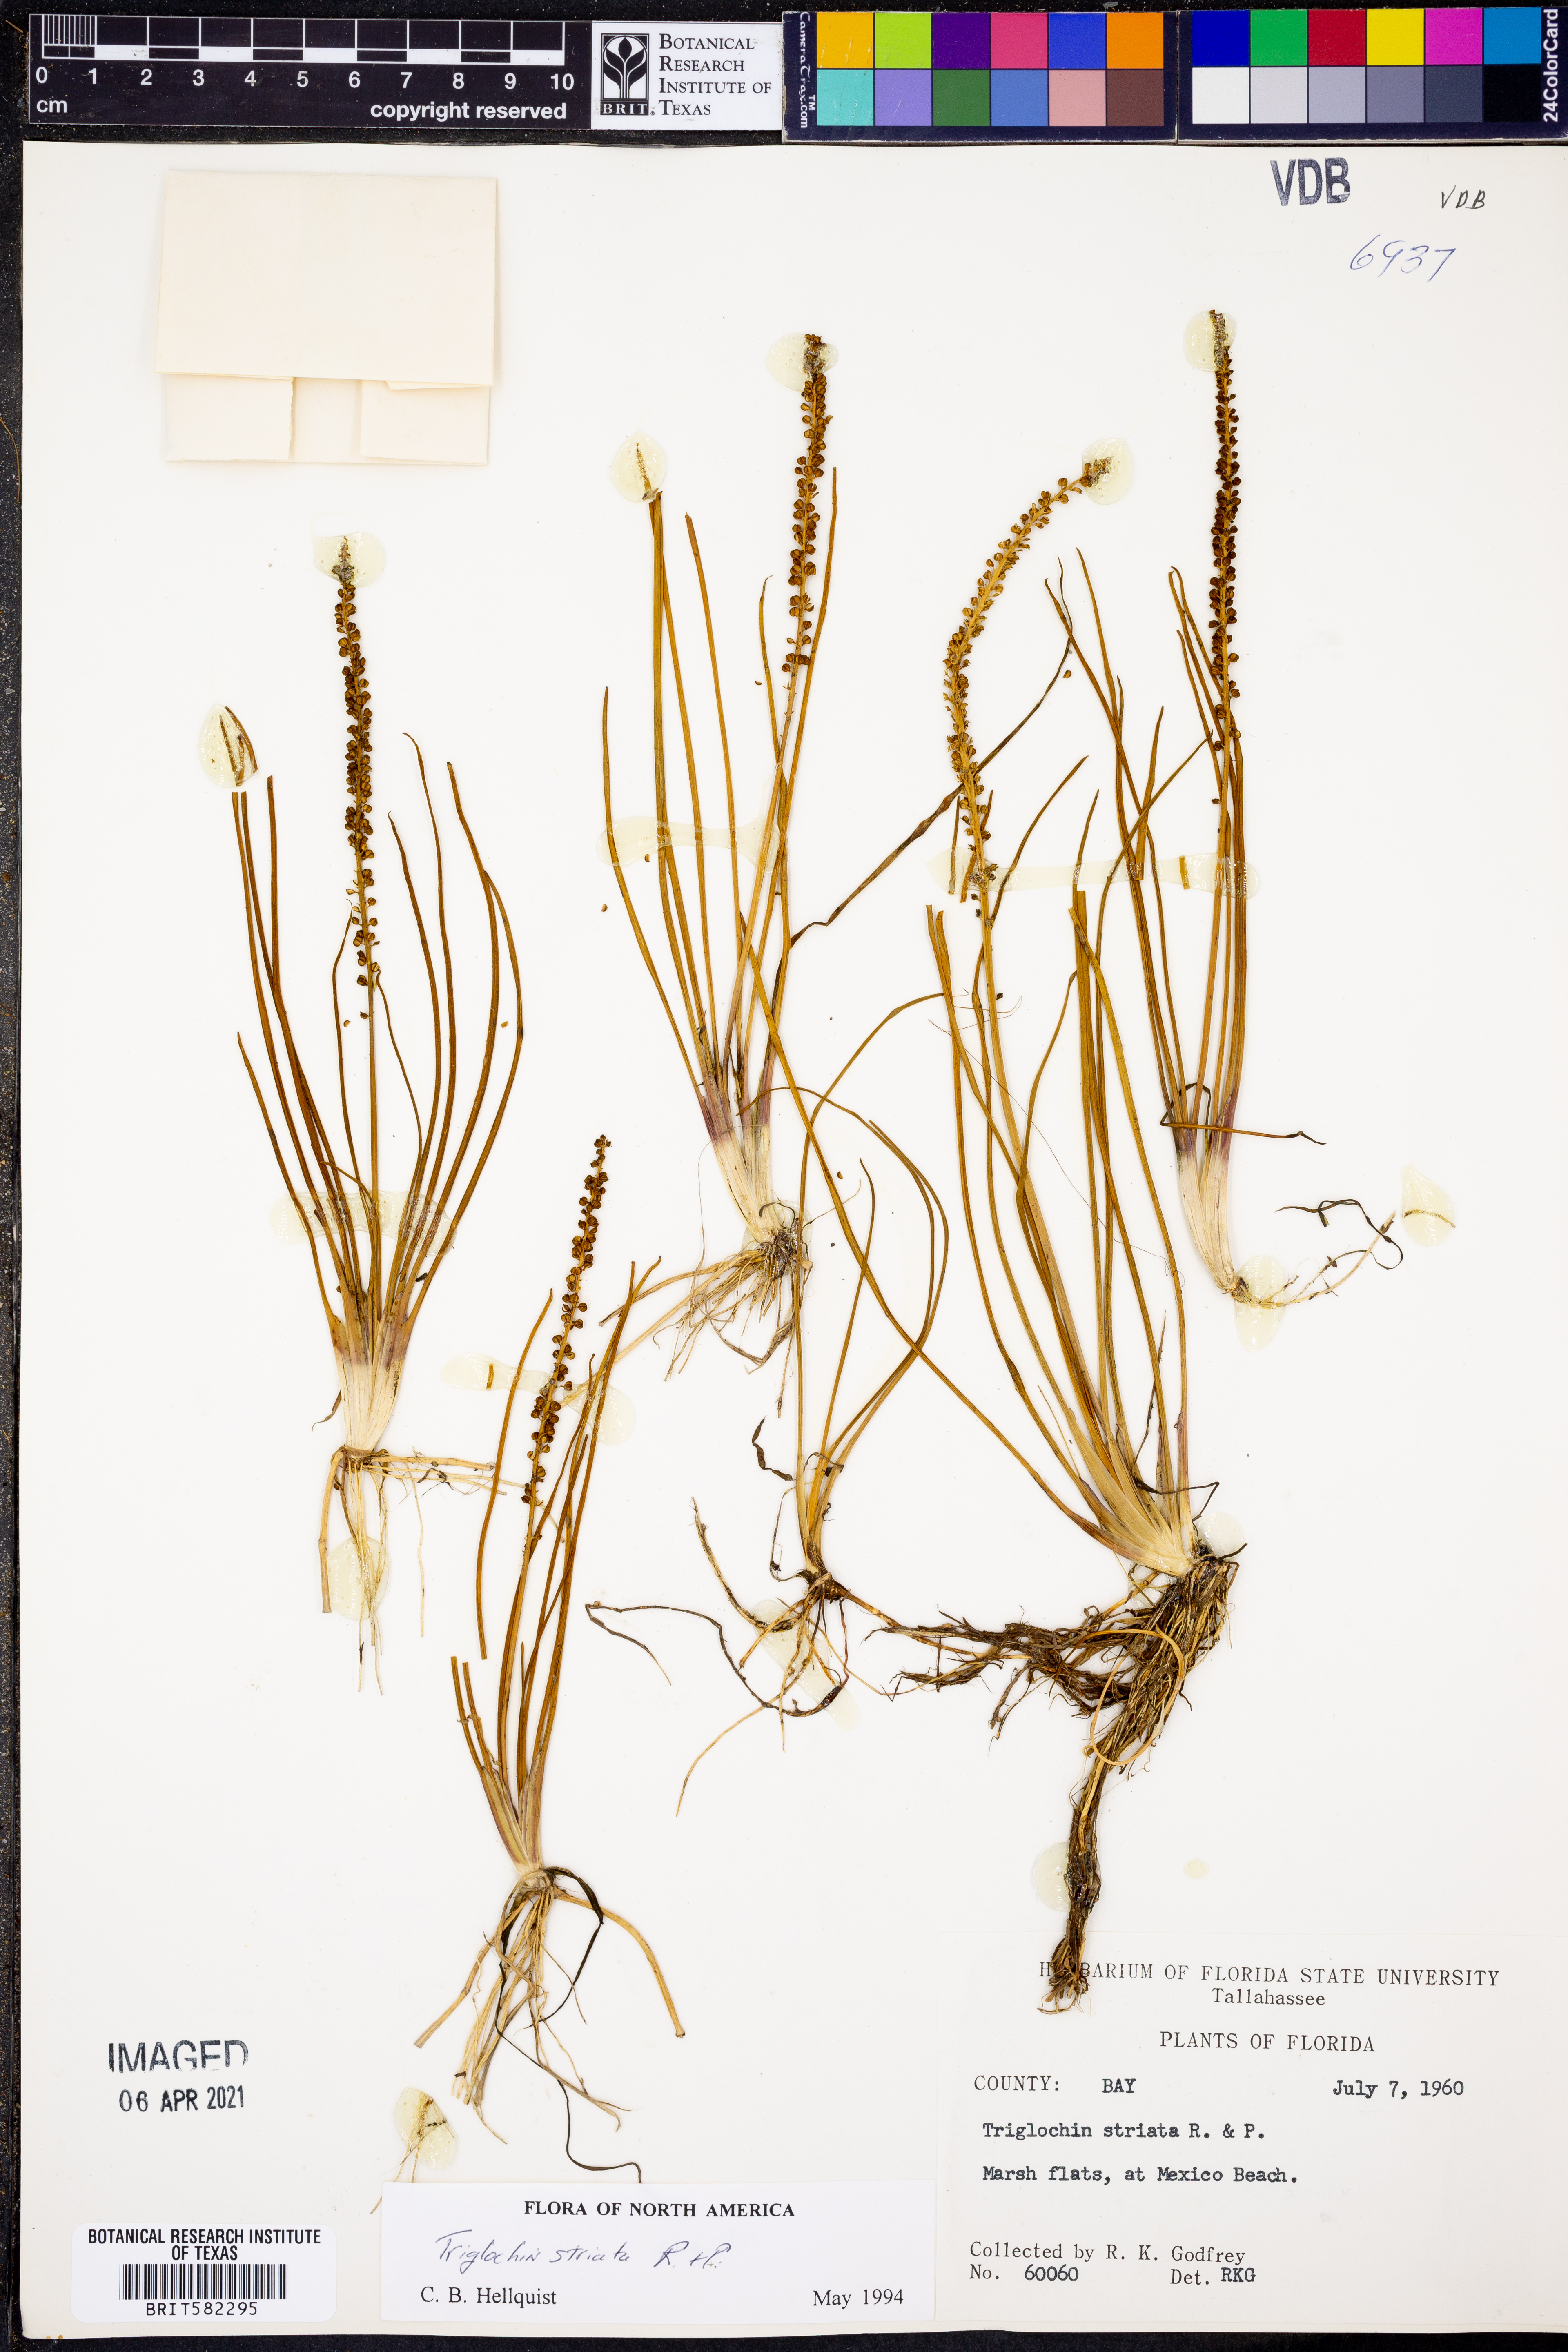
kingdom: Plantae
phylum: Tracheophyta
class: Liliopsida
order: Alismatales
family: Juncaginaceae
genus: Triglochin
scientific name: Triglochin striata
